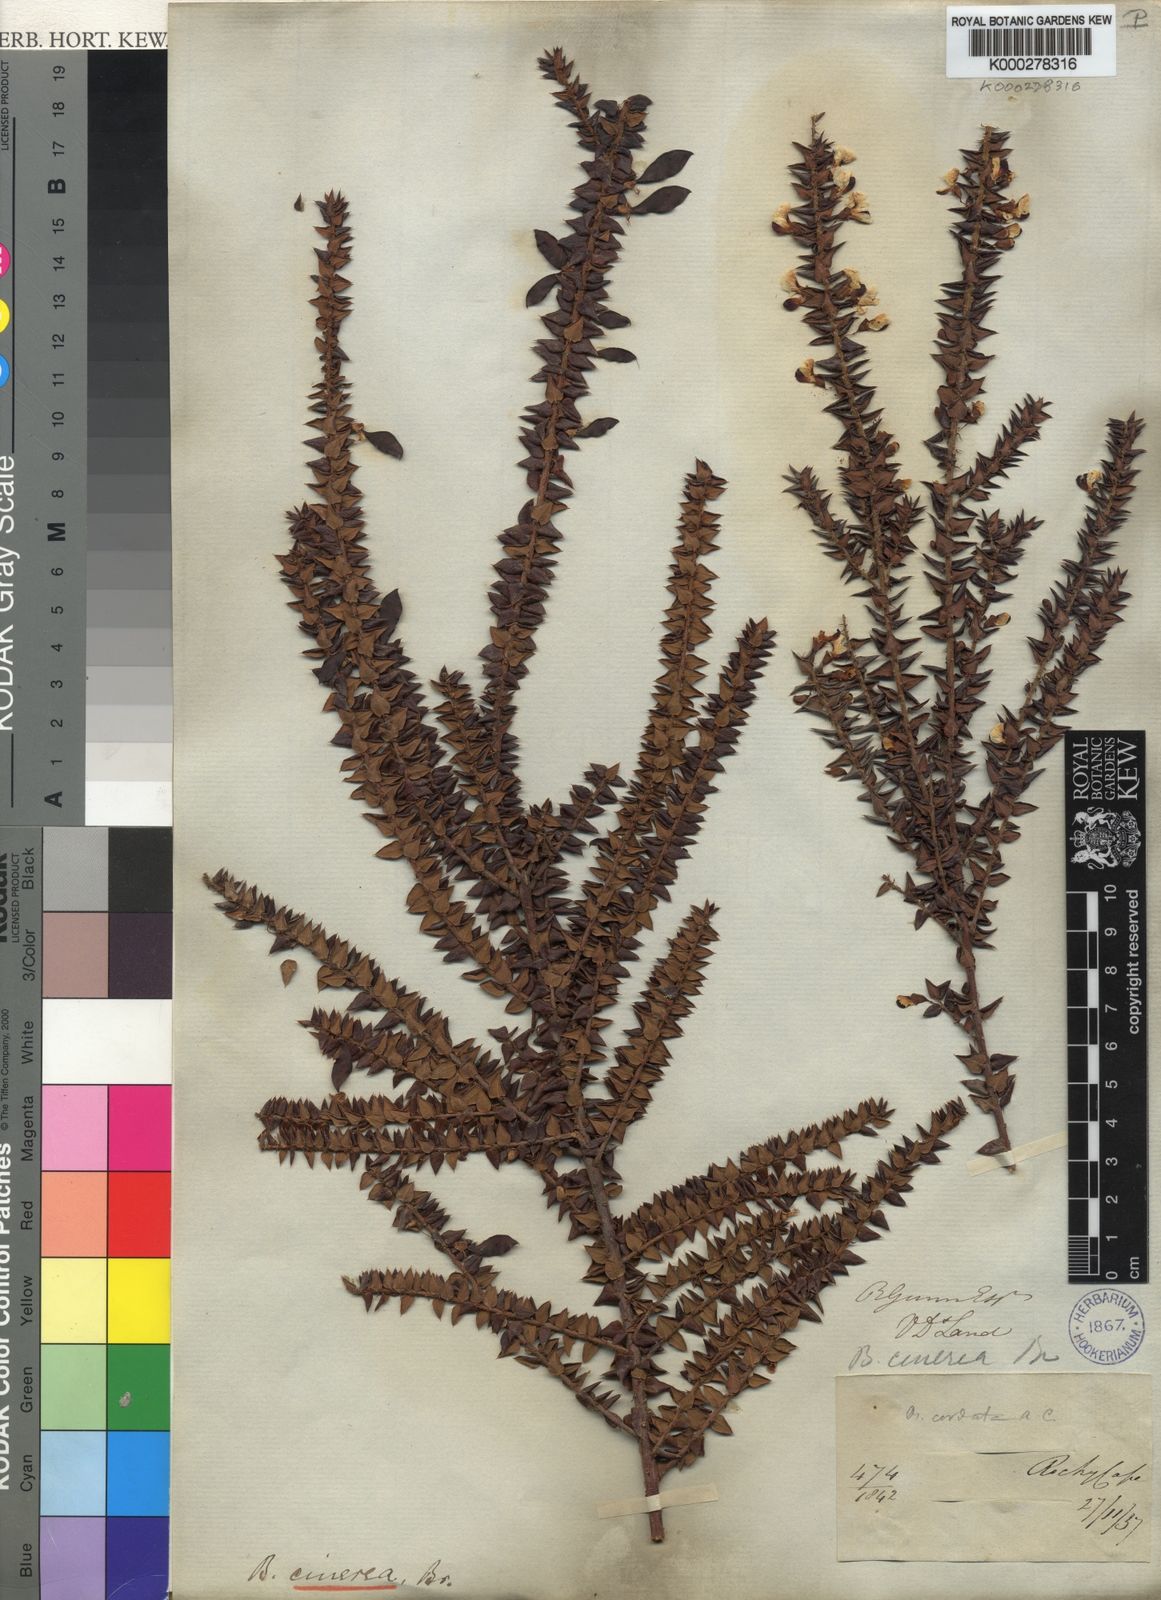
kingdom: Plantae
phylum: Tracheophyta
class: Magnoliopsida
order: Fabales
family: Fabaceae
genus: Bossiaea
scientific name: Bossiaea cinerea
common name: Showy bossiaea
